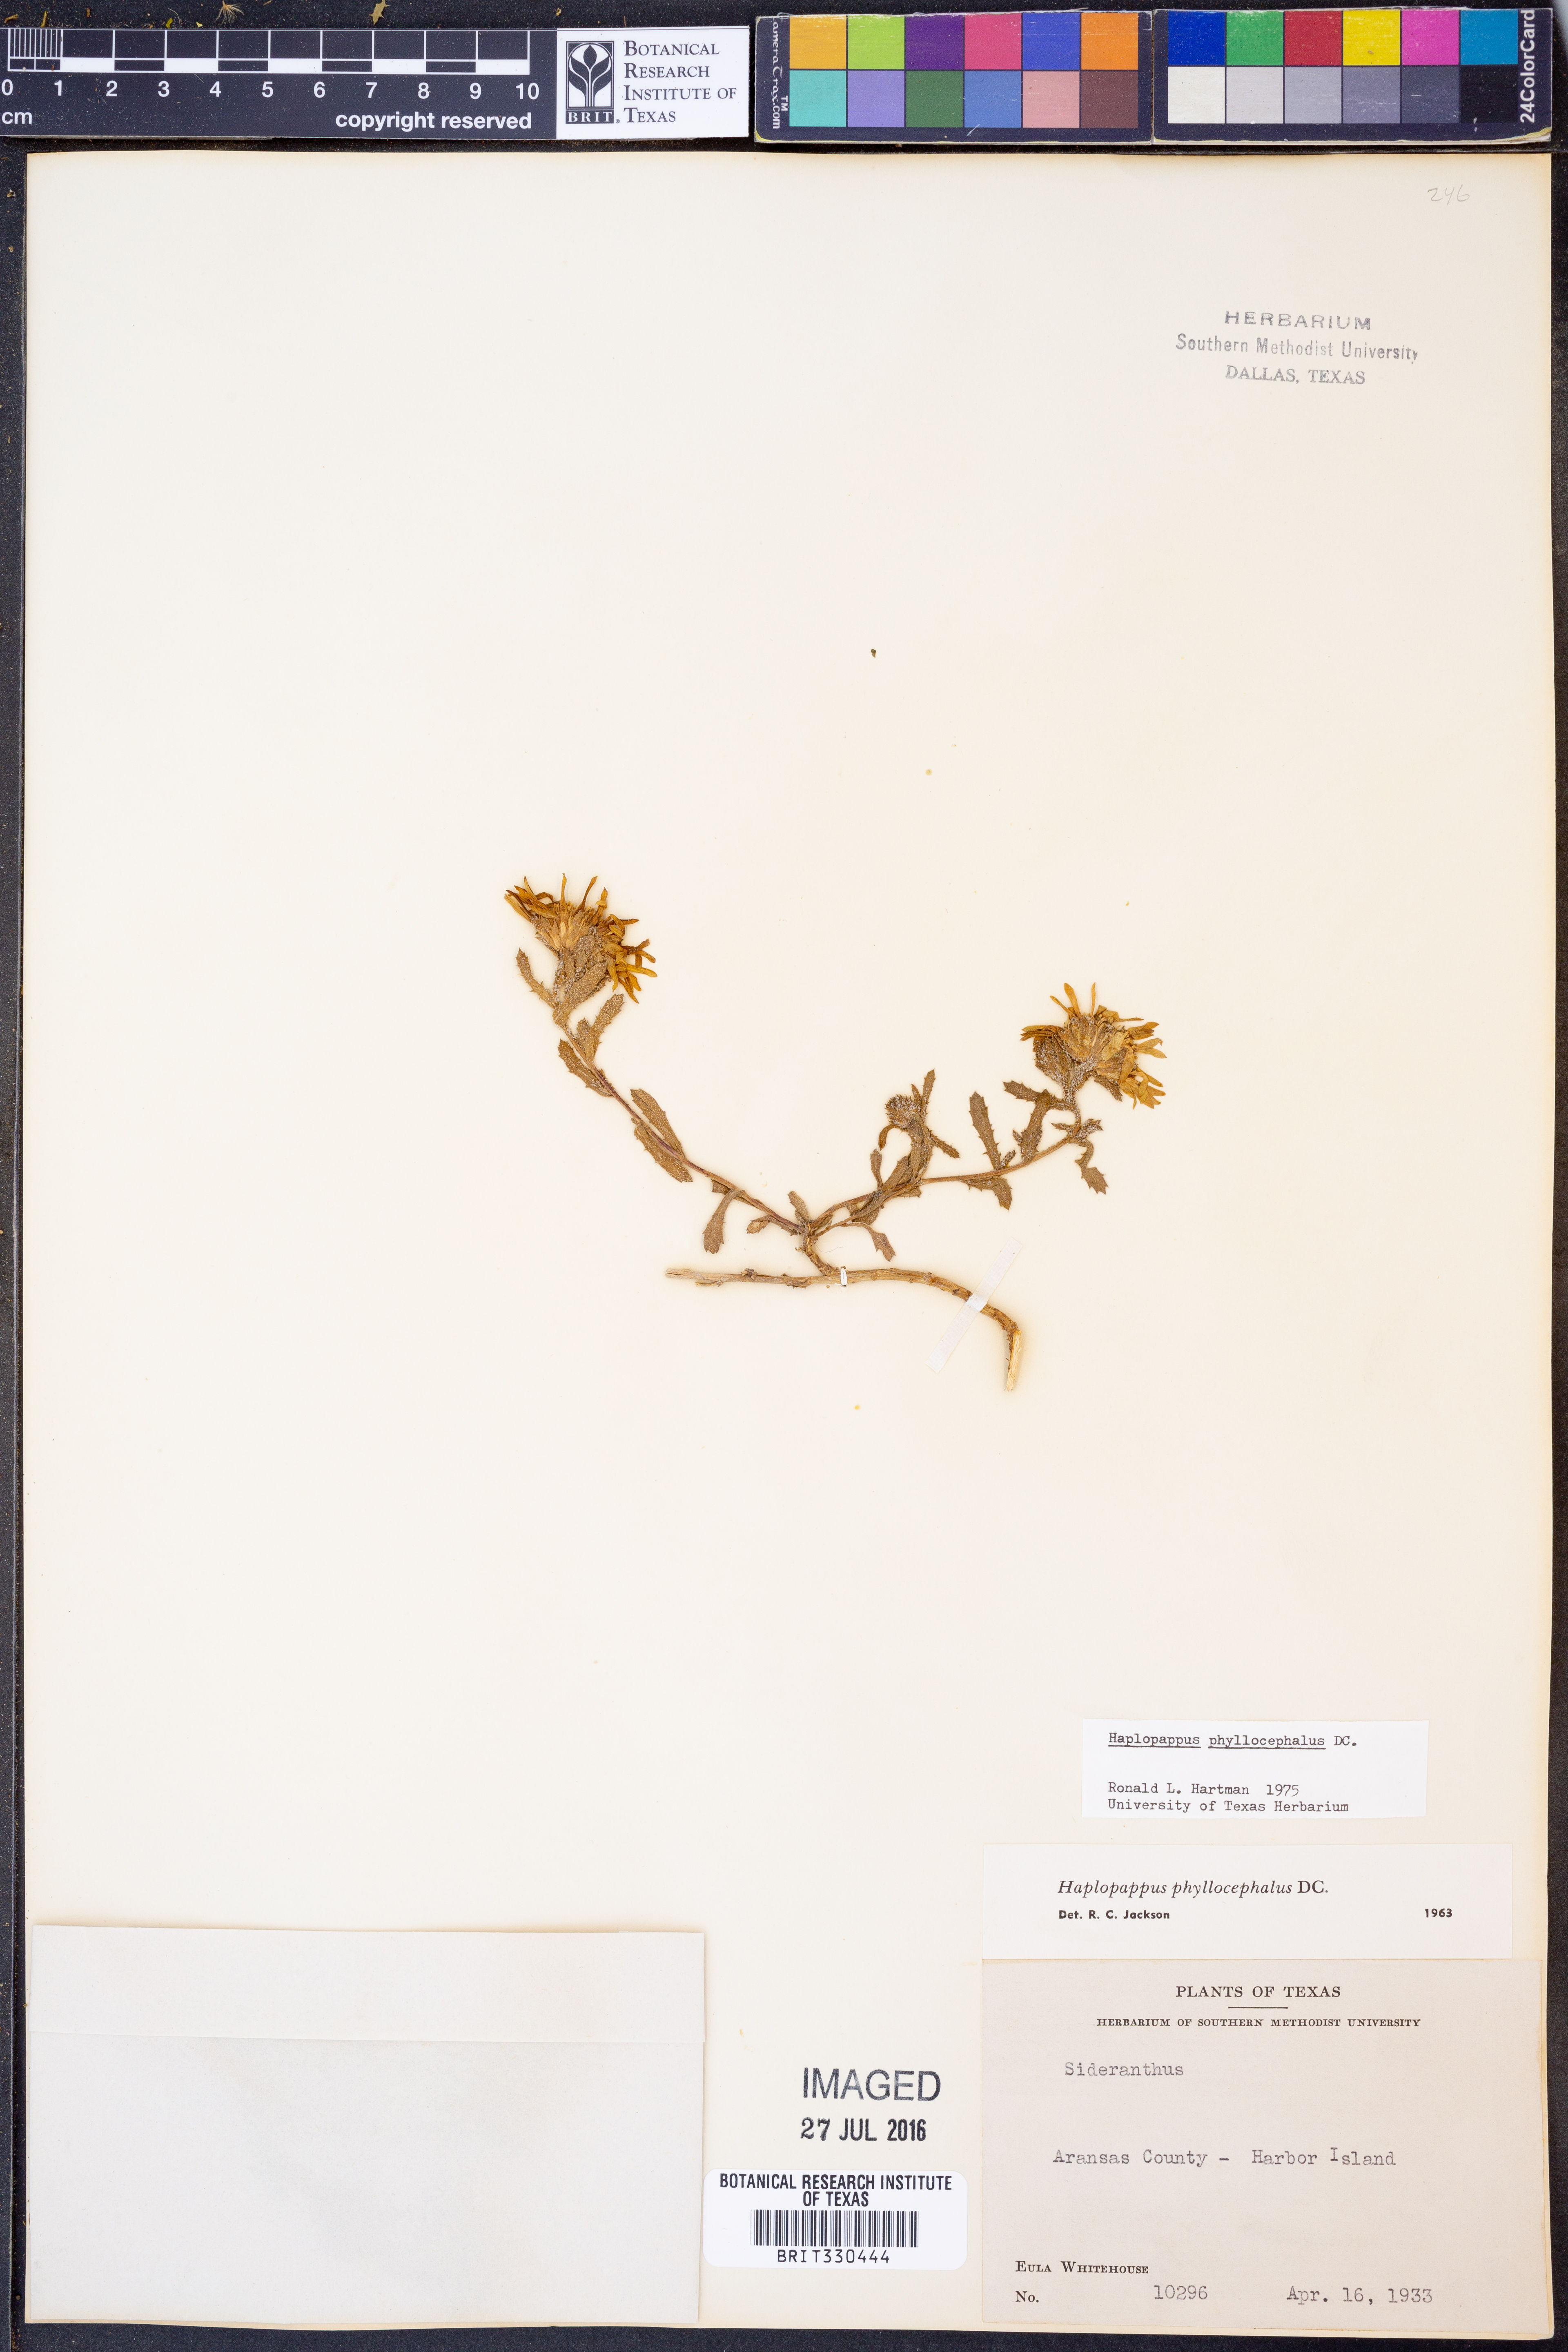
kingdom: Plantae
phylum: Tracheophyta
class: Magnoliopsida
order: Asterales
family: Asteraceae
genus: Rayjacksonia
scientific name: Rayjacksonia phyllocephala
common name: Gulf coast camphor daisy
